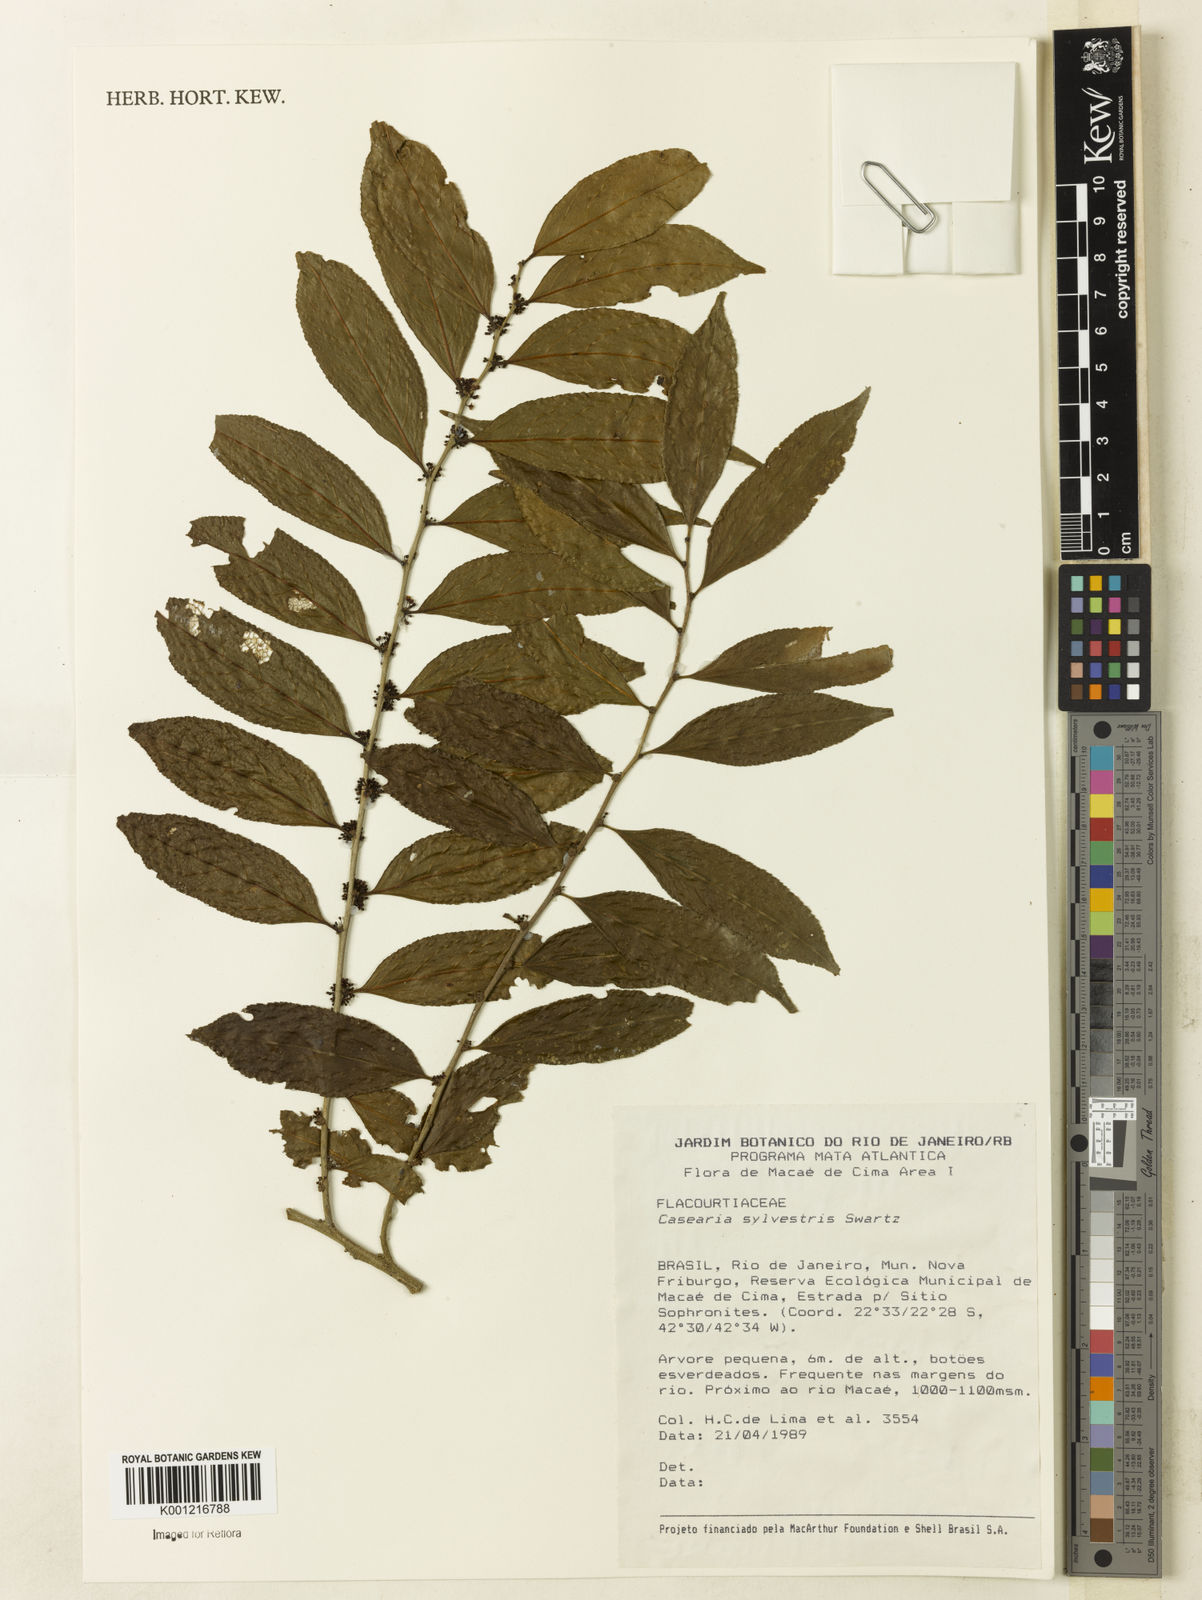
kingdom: Plantae
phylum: Tracheophyta
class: Magnoliopsida
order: Malpighiales
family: Salicaceae
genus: Casearia
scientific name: Casearia sylvestris
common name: Wild sage
